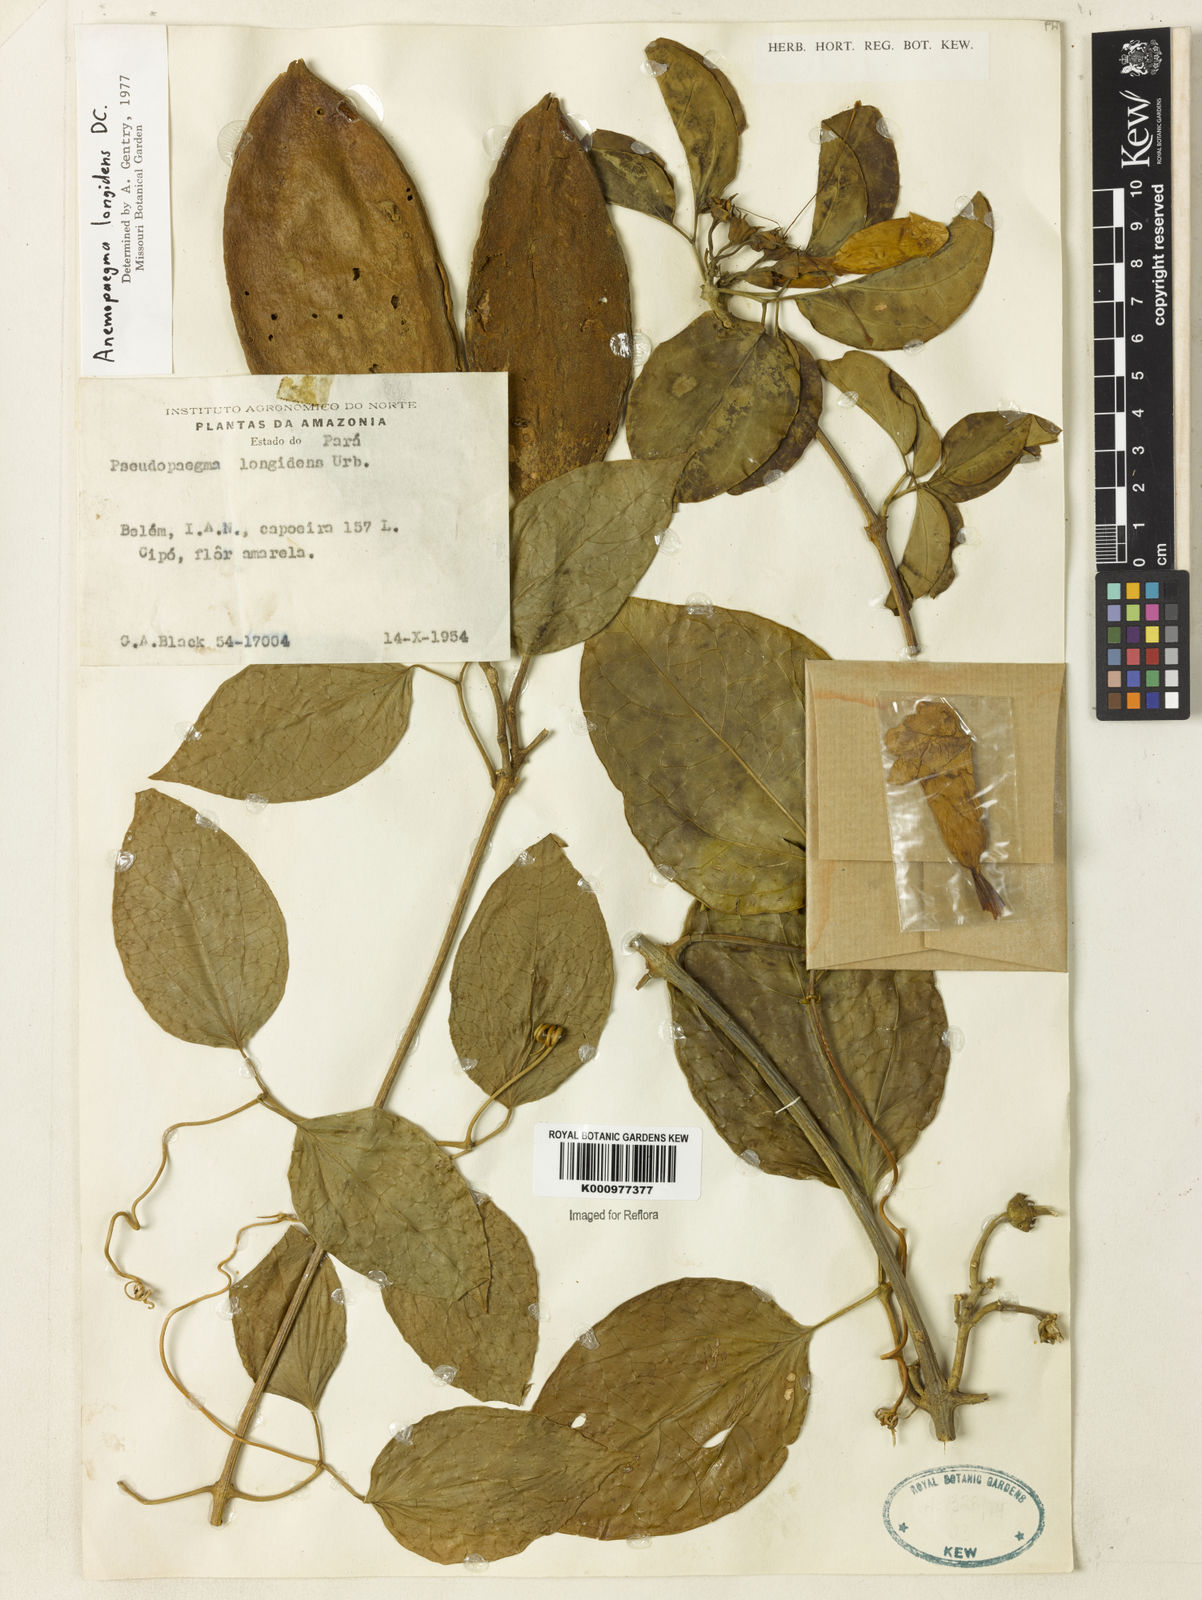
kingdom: Plantae
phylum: Tracheophyta
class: Magnoliopsida
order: Lamiales
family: Bignoniaceae
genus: Anemopaegma
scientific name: Anemopaegma longidens
